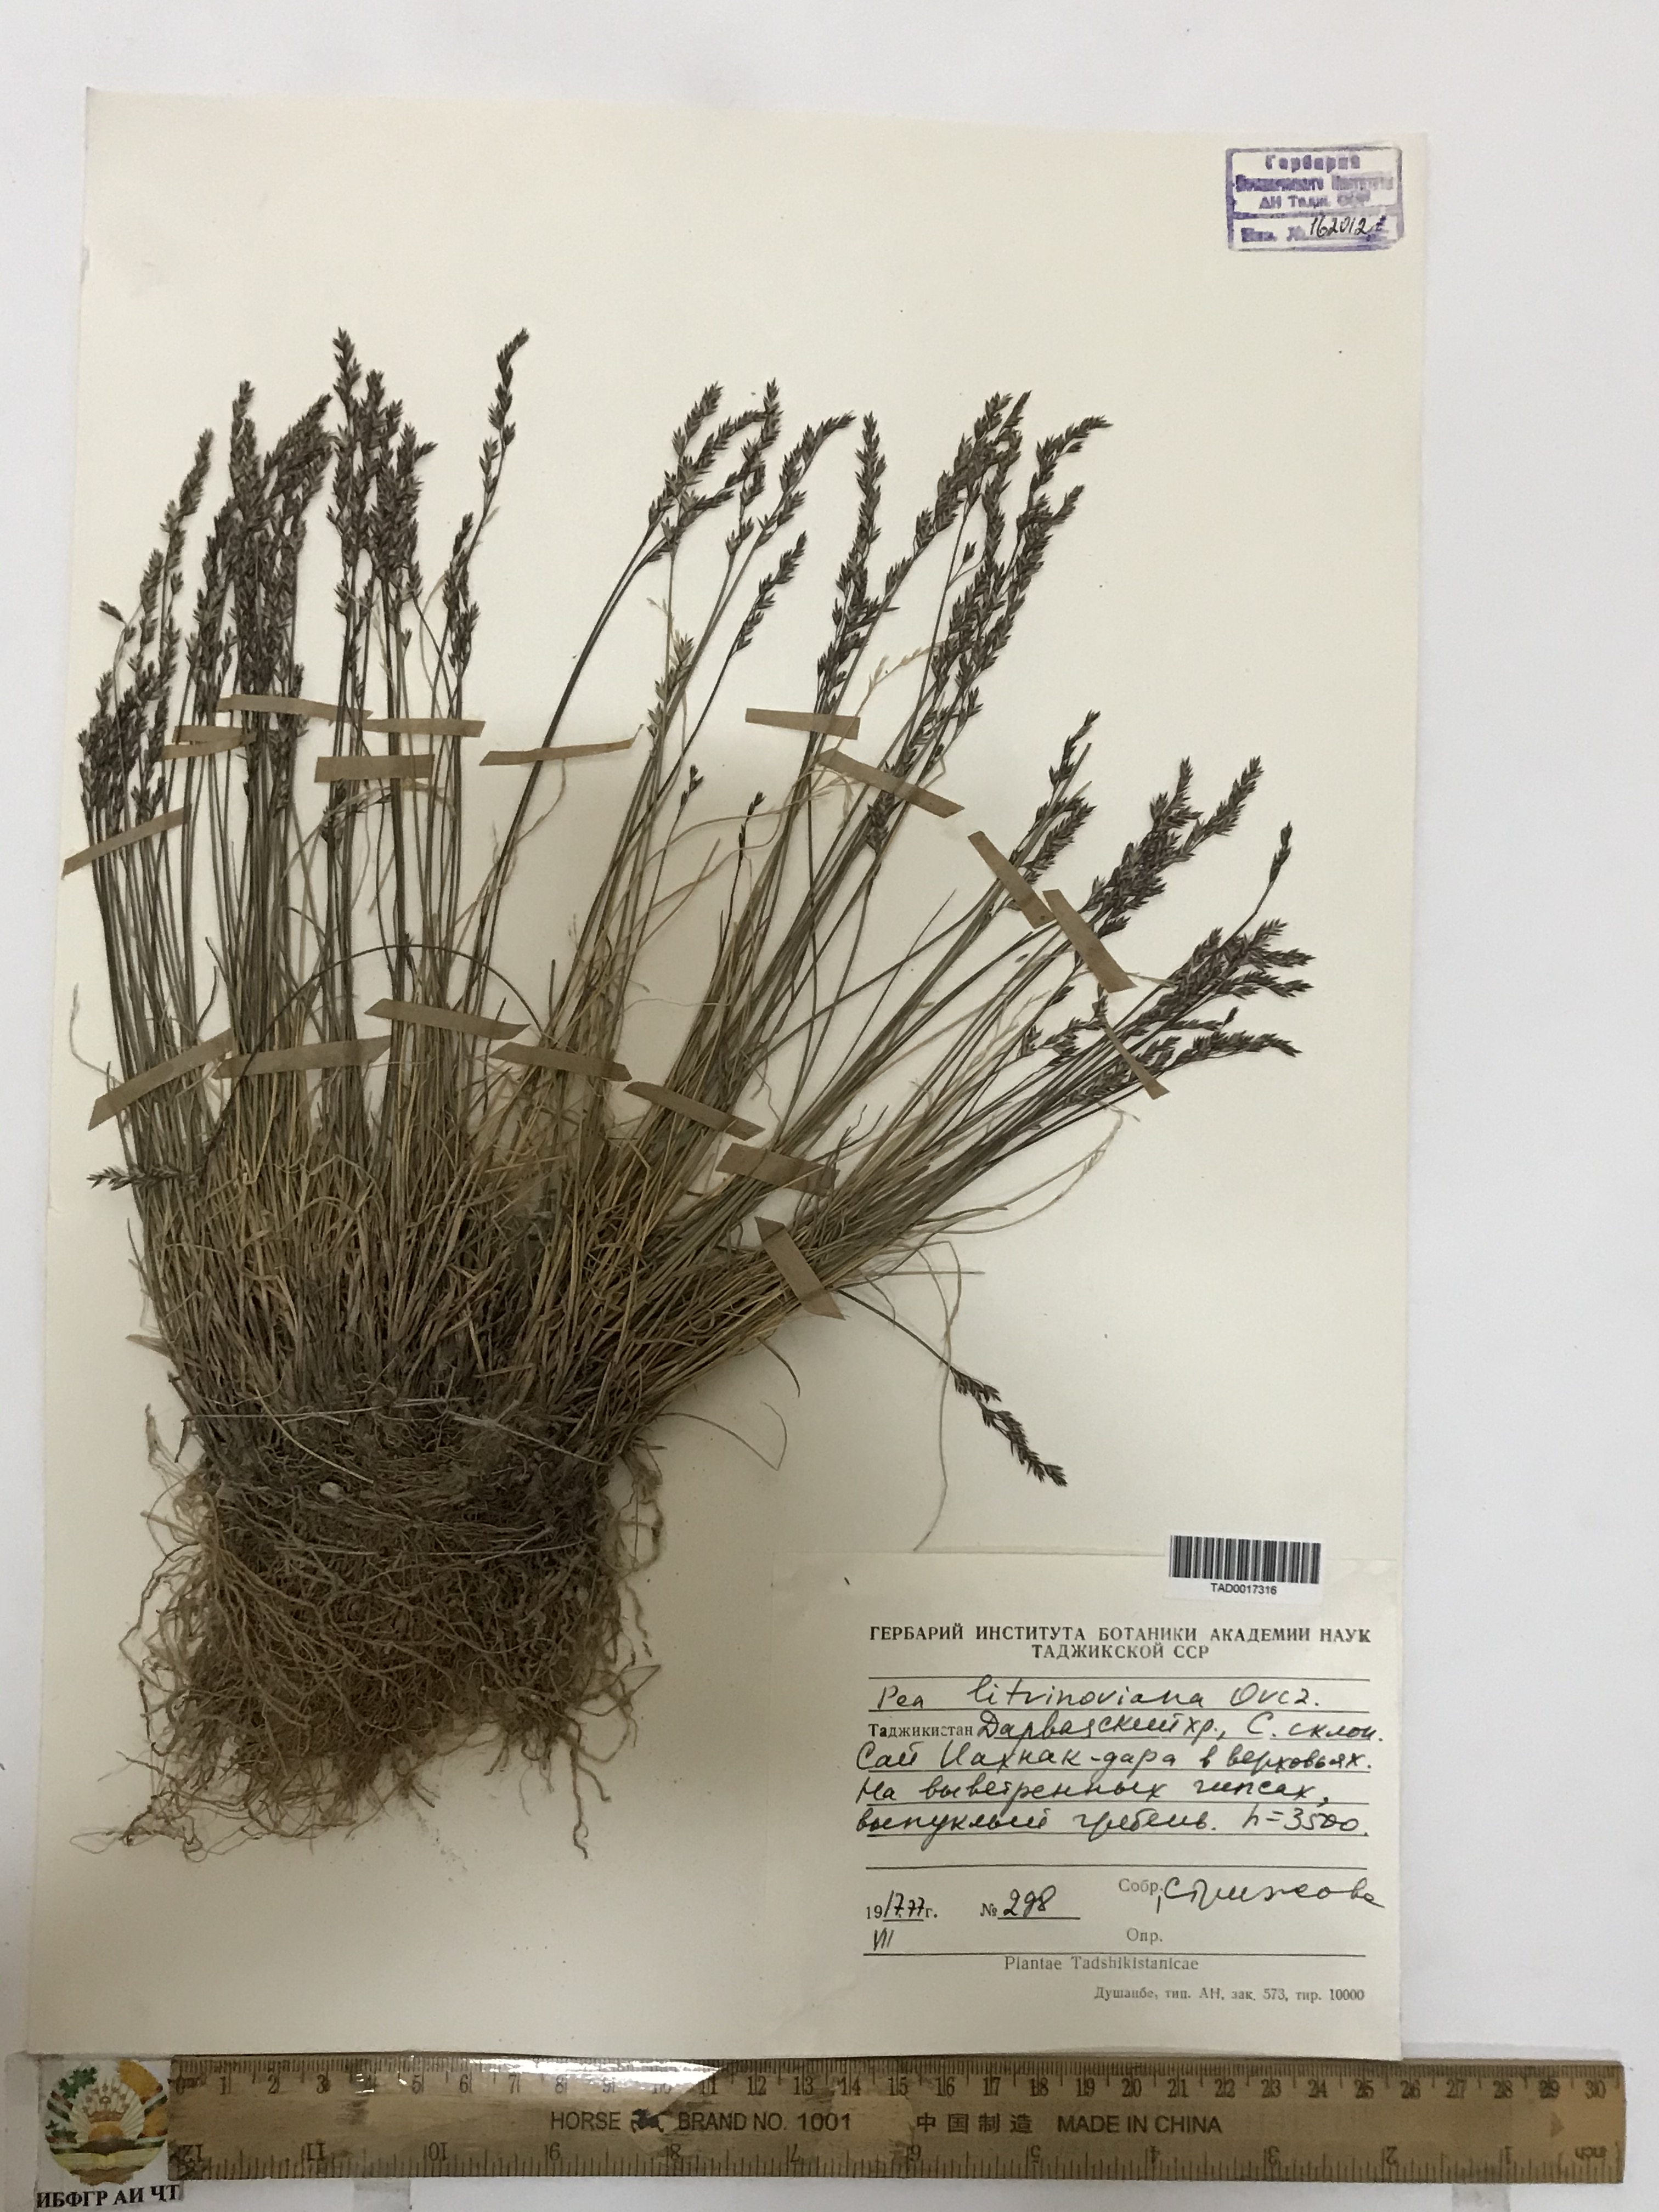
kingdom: Plantae
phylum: Tracheophyta
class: Liliopsida
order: Poales
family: Poaceae
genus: Poa
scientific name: Poa glauca
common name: Glaucous bluegrass
